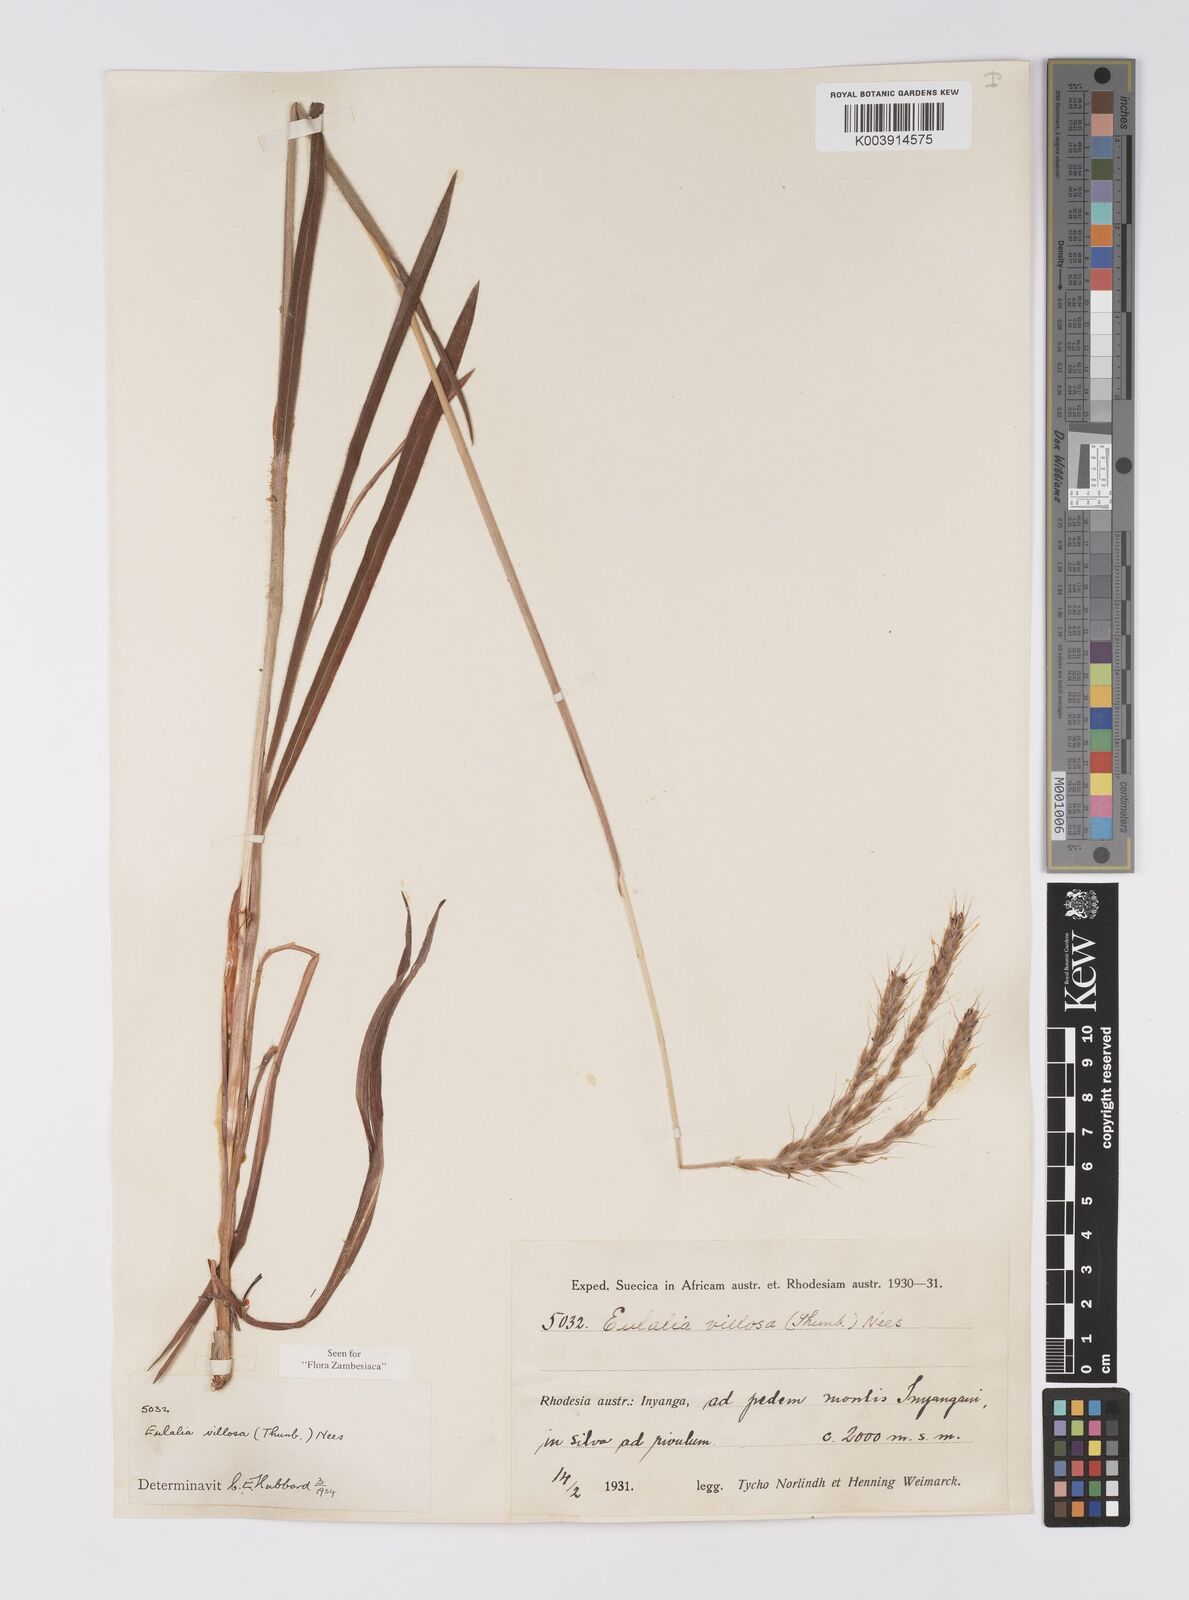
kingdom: Plantae
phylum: Tracheophyta
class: Liliopsida
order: Poales
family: Poaceae
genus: Eulalia
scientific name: Eulalia villosa
